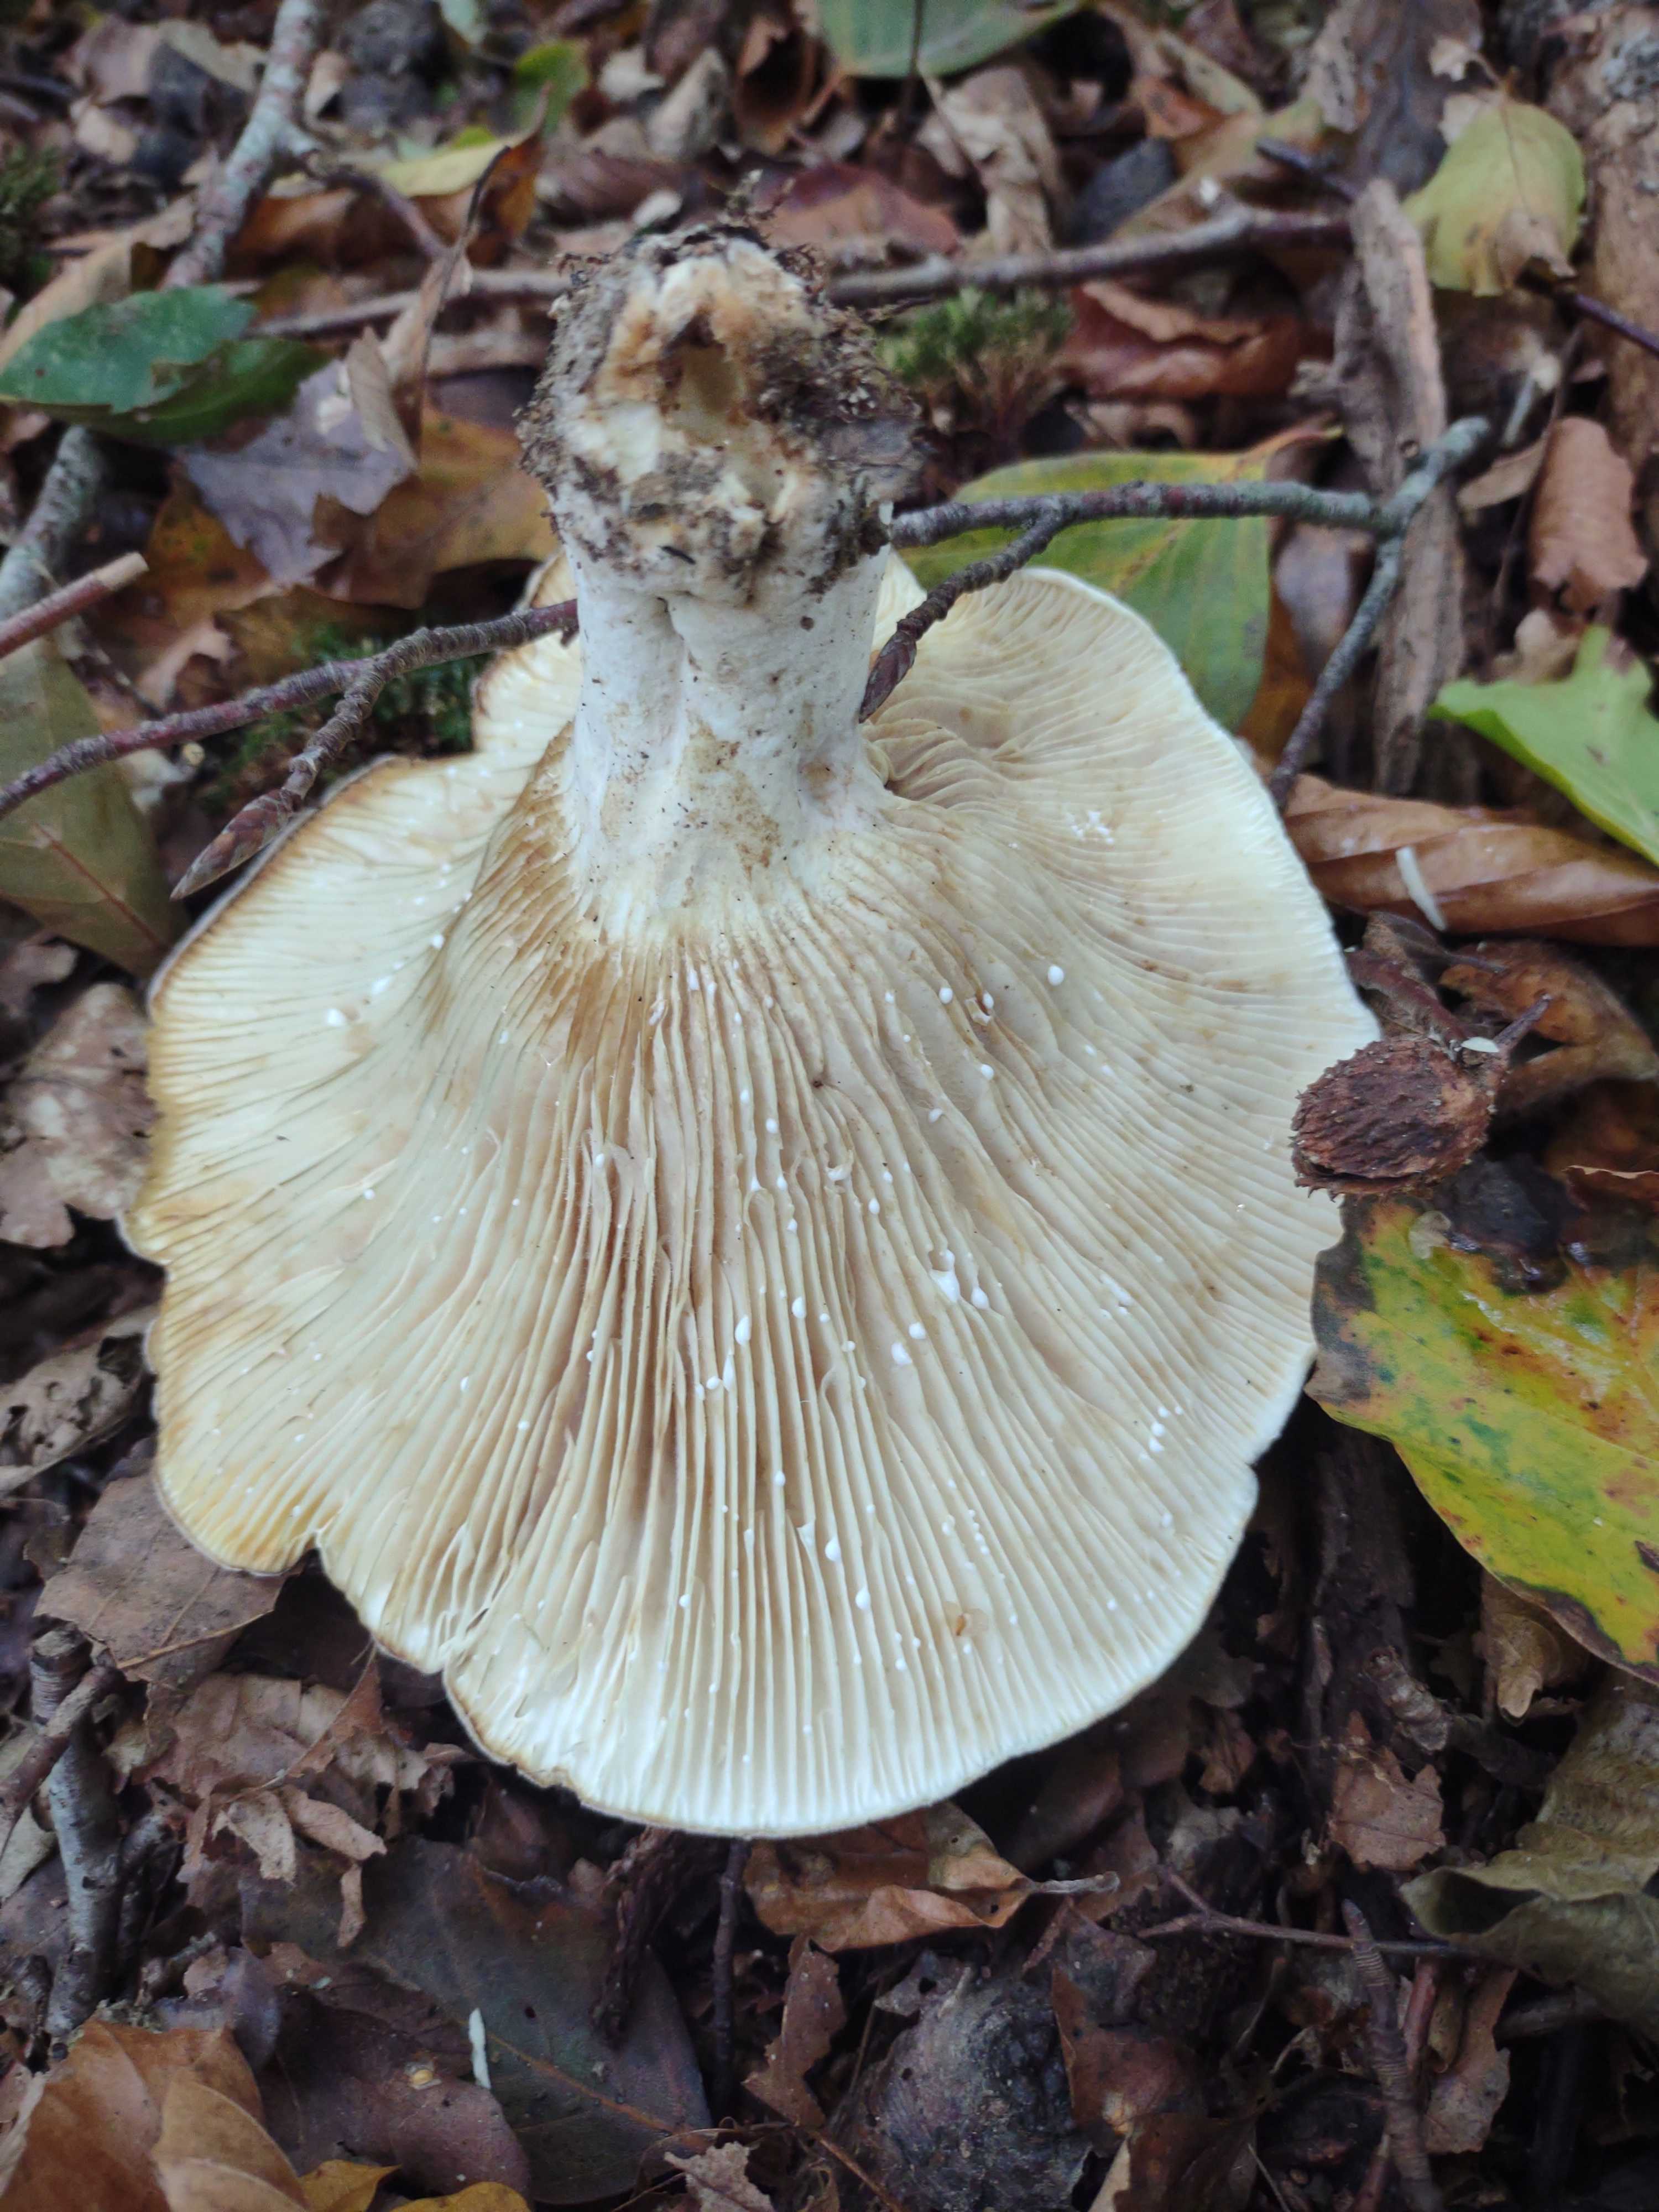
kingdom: Fungi
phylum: Basidiomycota
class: Agaricomycetes
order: Russulales
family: Russulaceae
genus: Lactifluus
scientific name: Lactifluus
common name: mælkehat
